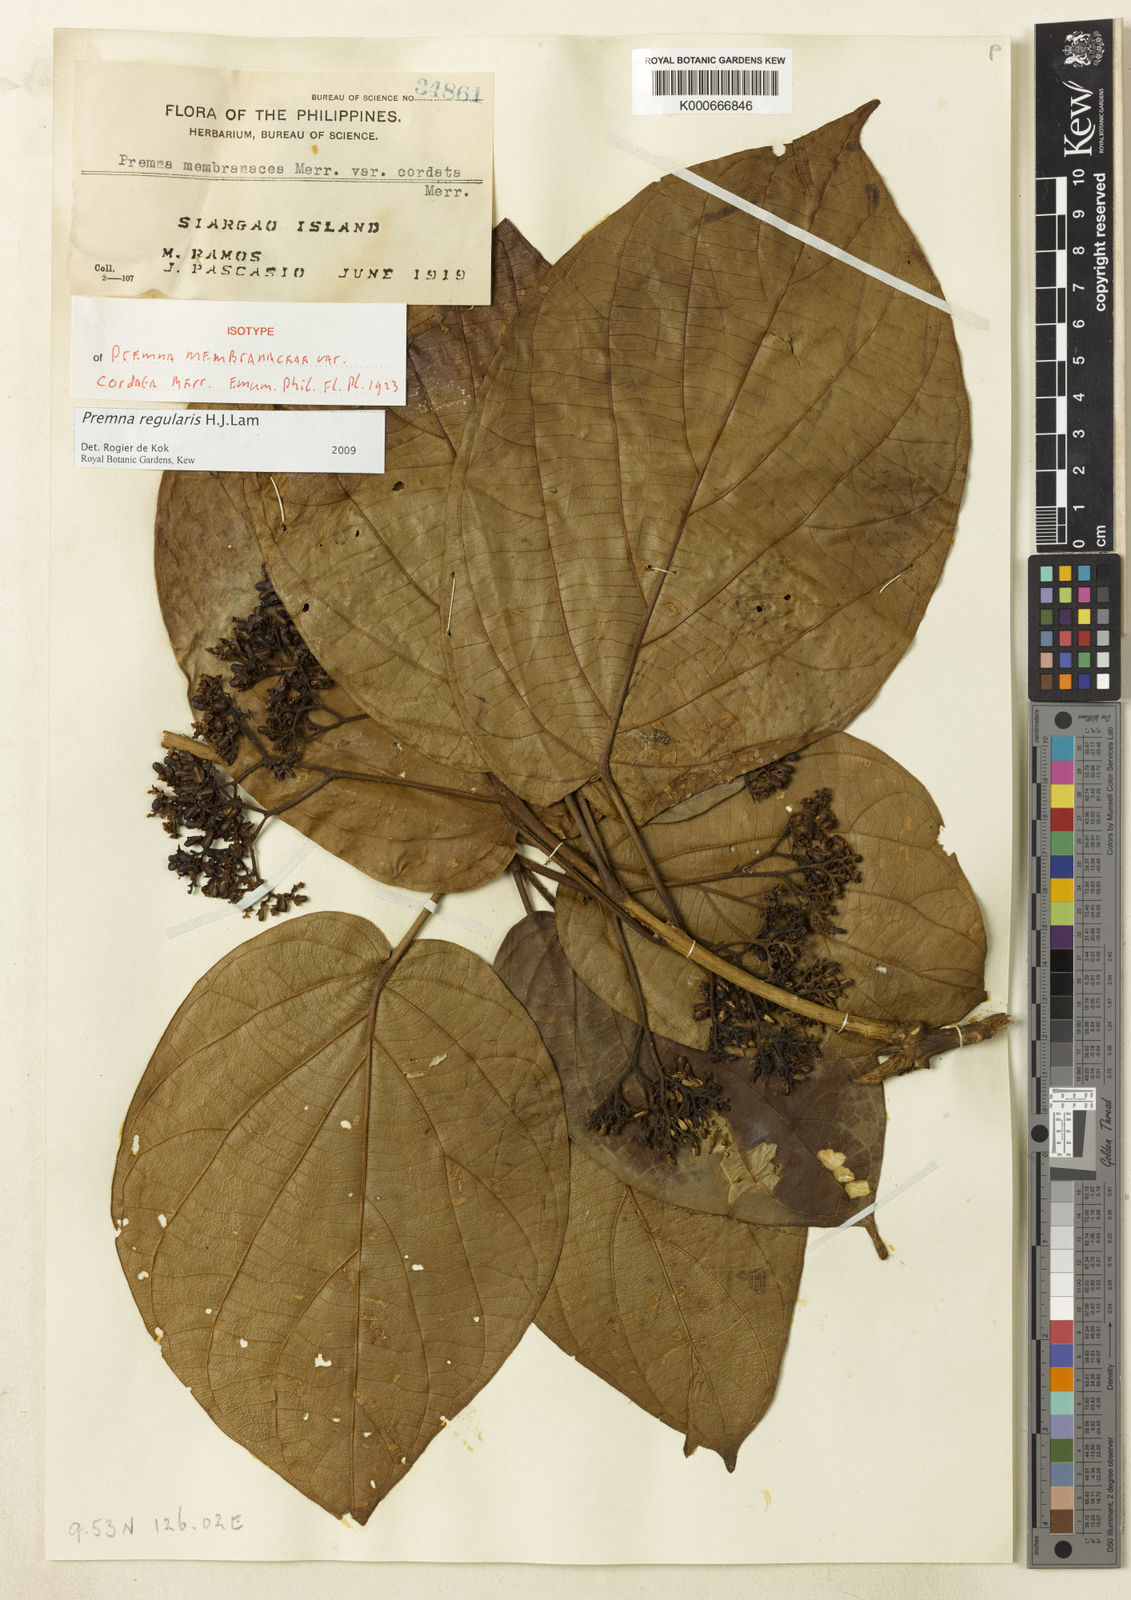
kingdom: Plantae
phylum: Tracheophyta
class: Magnoliopsida
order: Lamiales
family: Lamiaceae
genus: Premna
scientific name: Premna regularis
